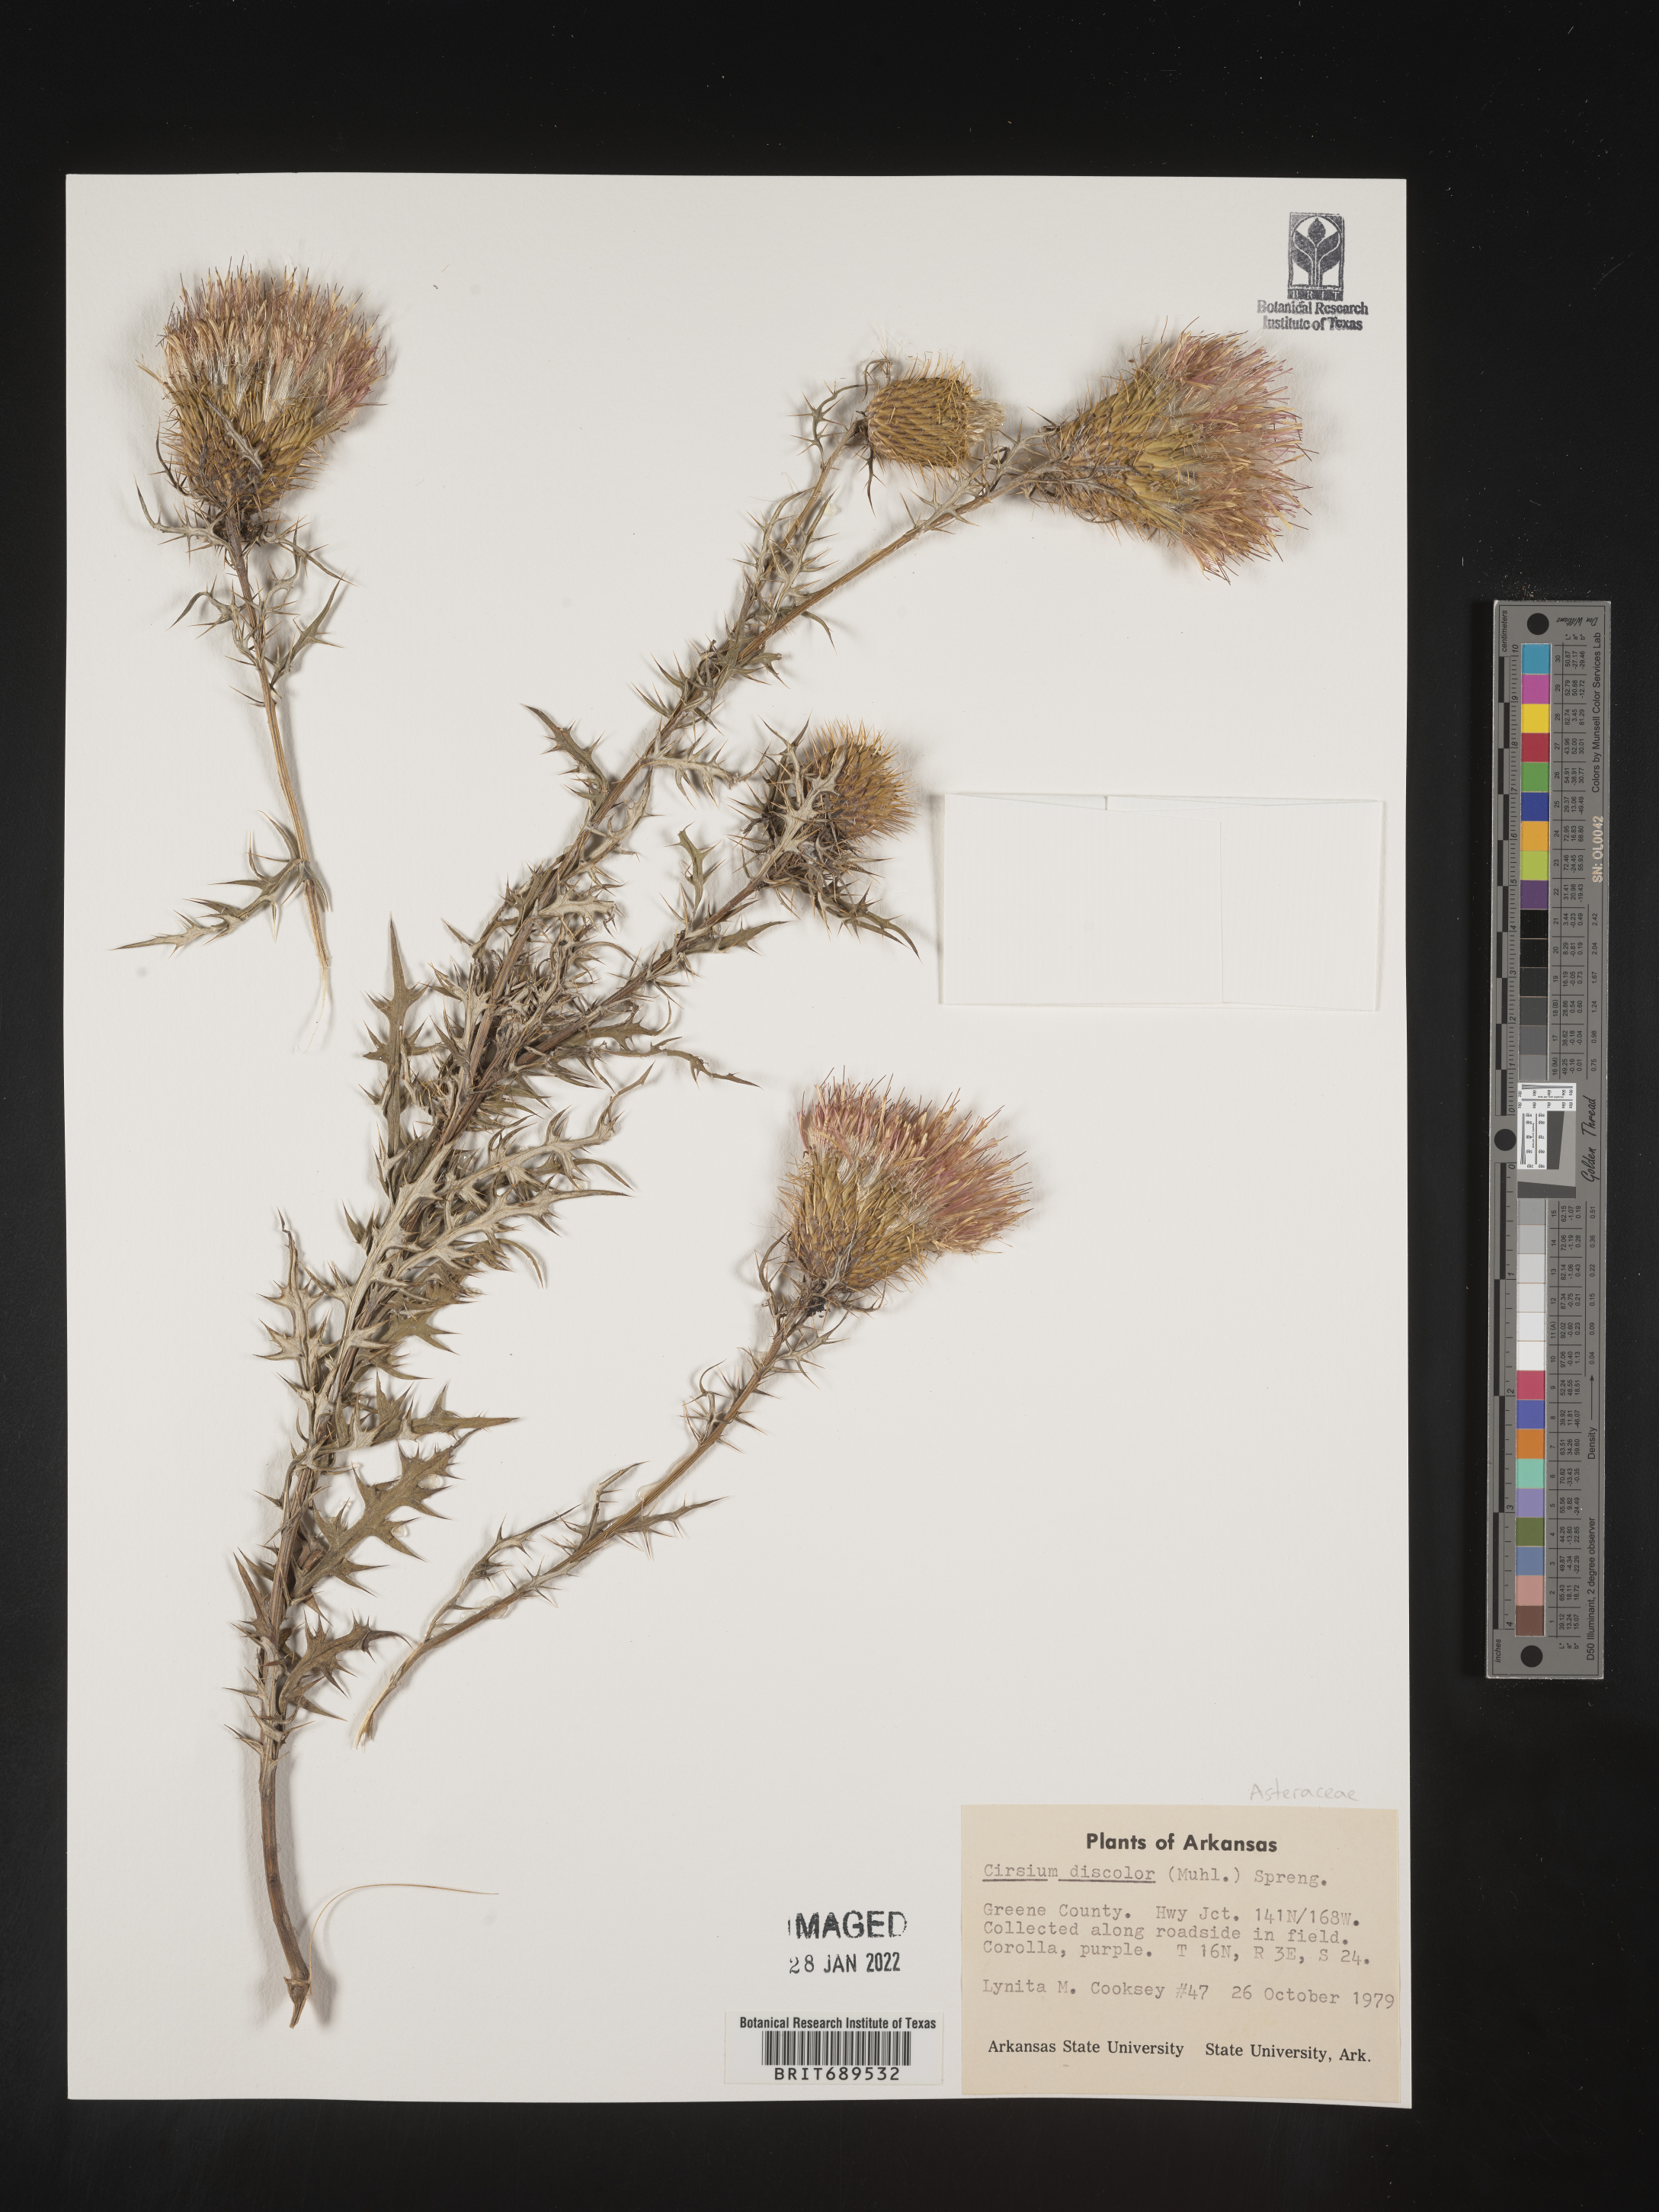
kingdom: Plantae
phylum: Tracheophyta
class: Magnoliopsida
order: Asterales
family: Asteraceae
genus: Cirsium
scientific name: Cirsium discolor
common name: Field thistle
